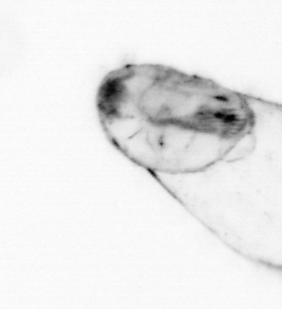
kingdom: Animalia
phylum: Chaetognatha
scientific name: Chaetognatha
